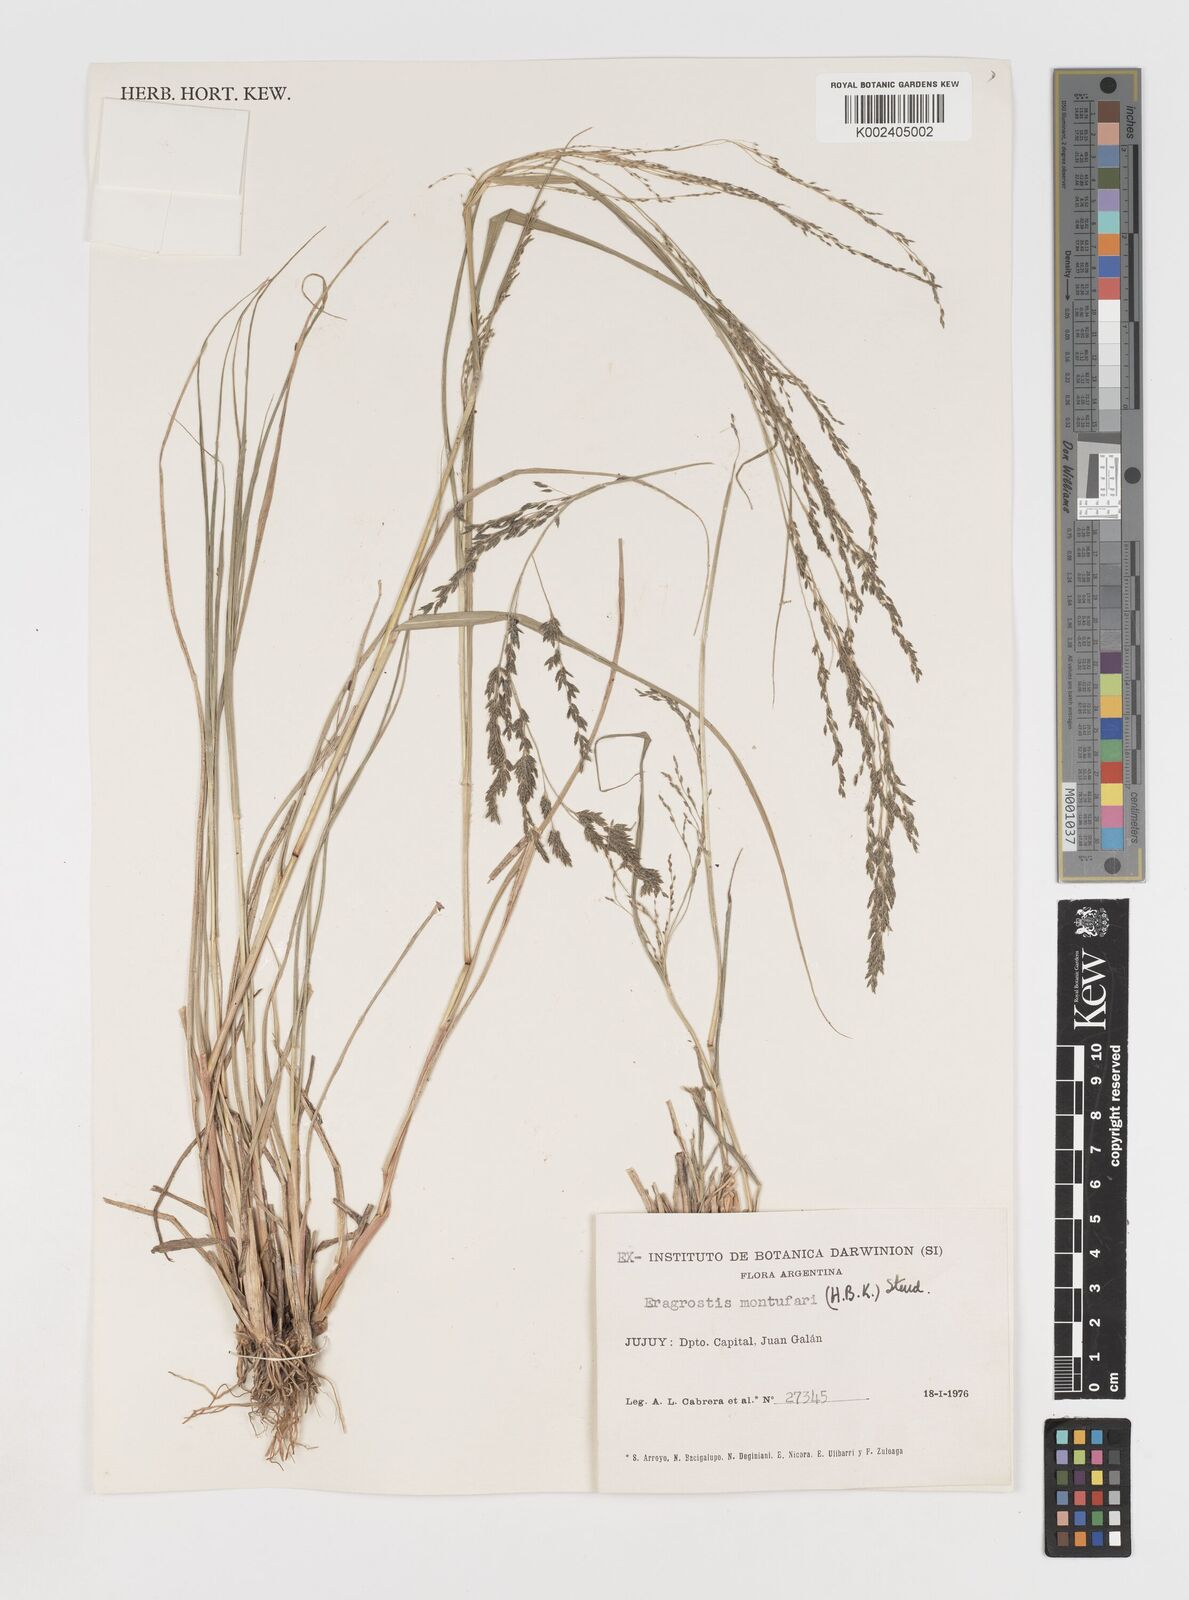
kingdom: Plantae
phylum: Tracheophyta
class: Liliopsida
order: Poales
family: Poaceae
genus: Eragrostis
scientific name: Eragrostis pastoensis
